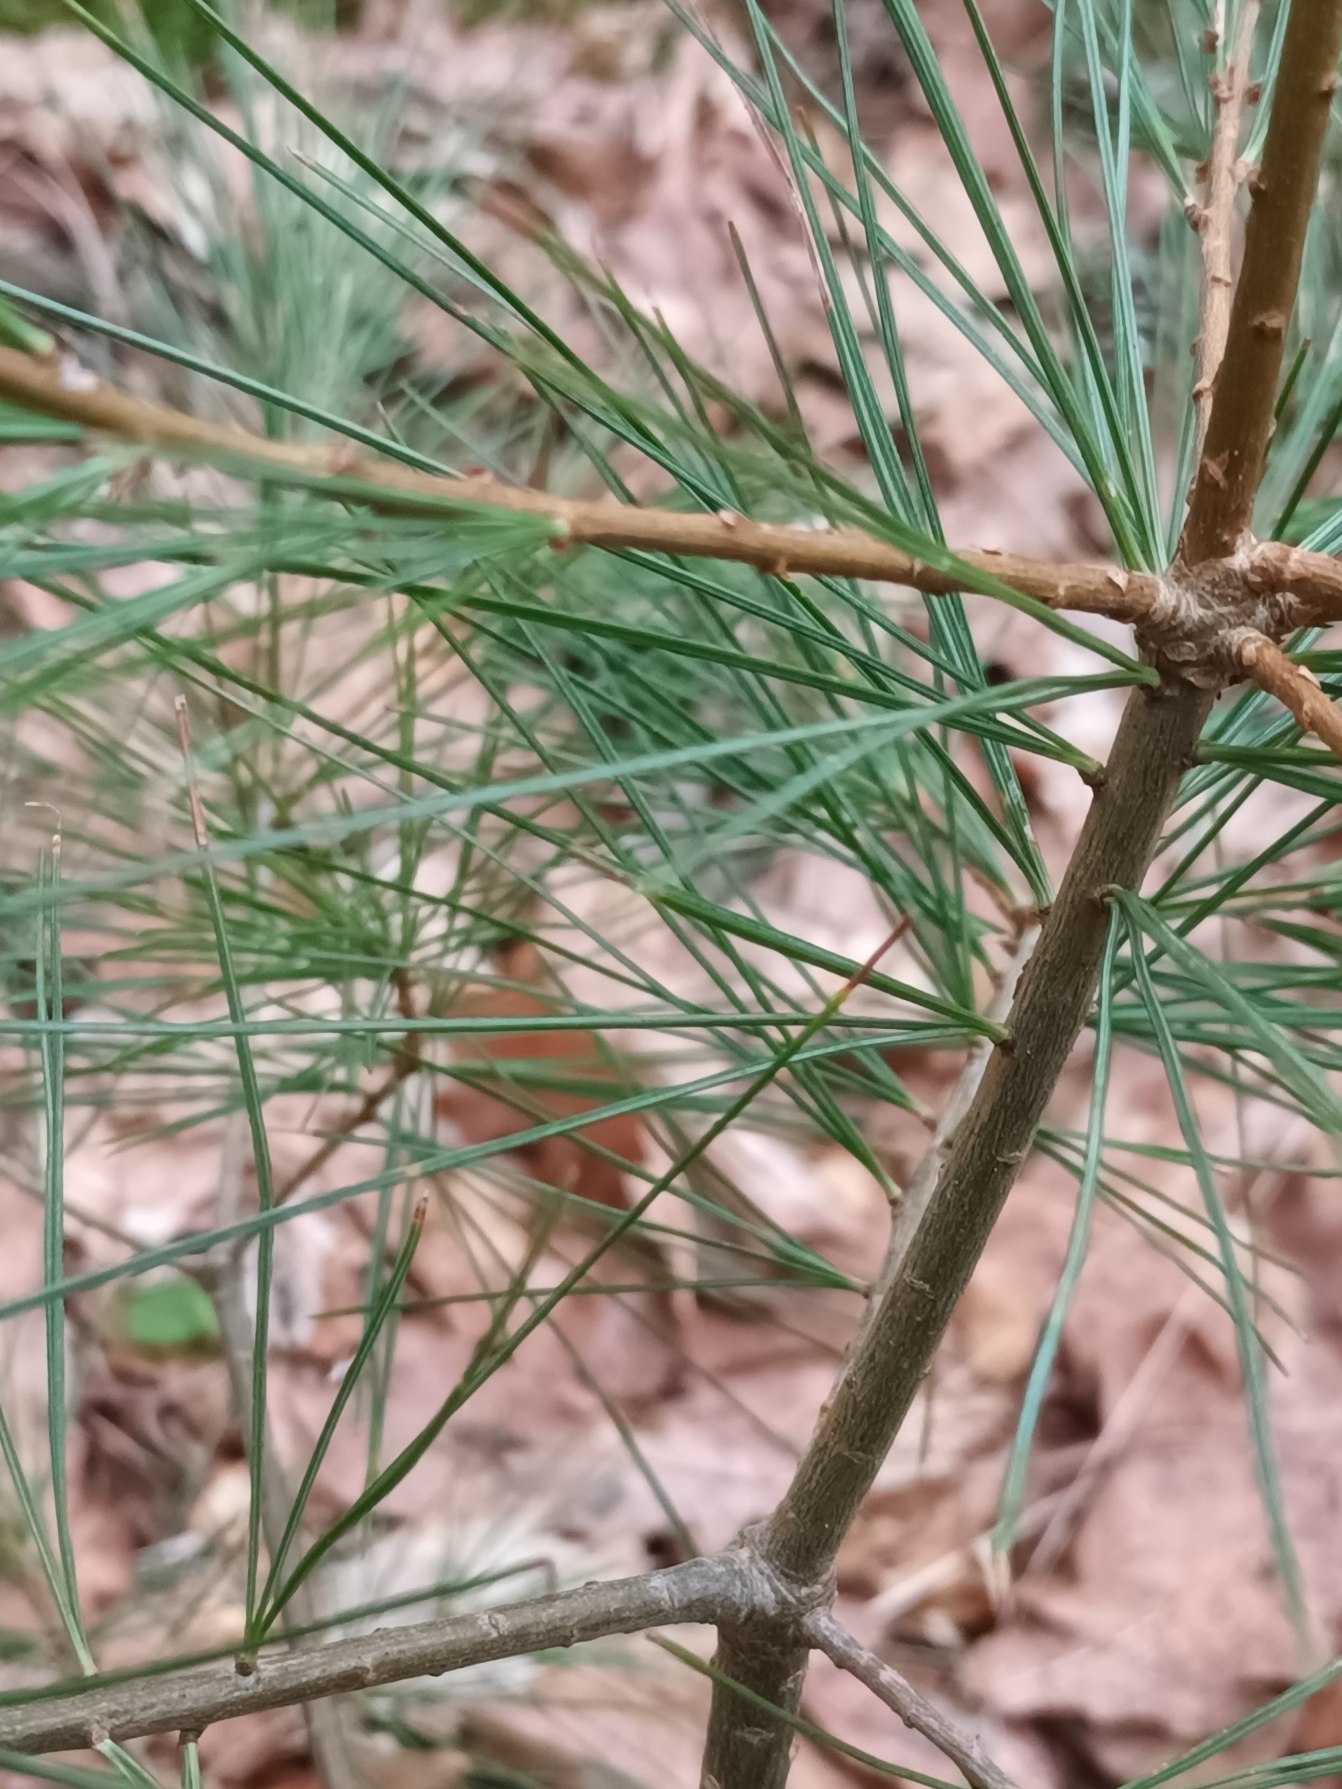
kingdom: Plantae
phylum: Tracheophyta
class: Pinopsida
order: Pinales
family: Pinaceae
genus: Pinus
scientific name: Pinus strobus
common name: Weymouths-fyr
